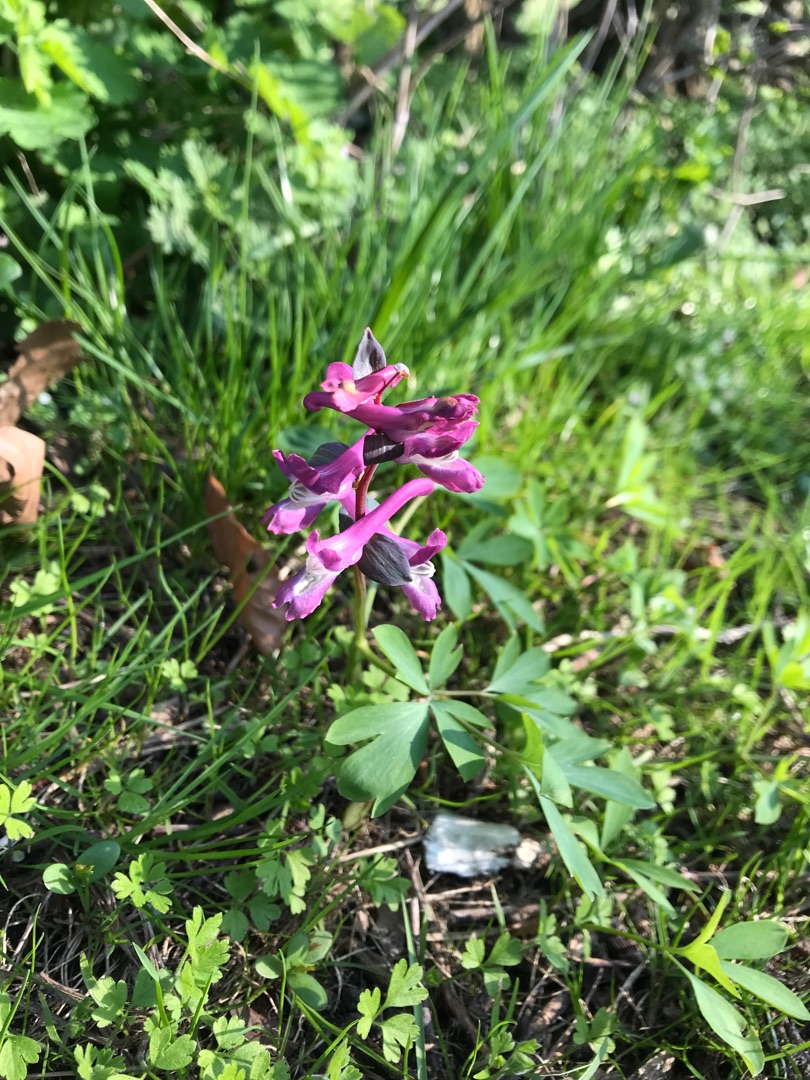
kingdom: Plantae
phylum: Tracheophyta
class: Magnoliopsida
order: Ranunculales
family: Papaveraceae
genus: Corydalis
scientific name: Corydalis cava
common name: Hulrodet lærkespore
